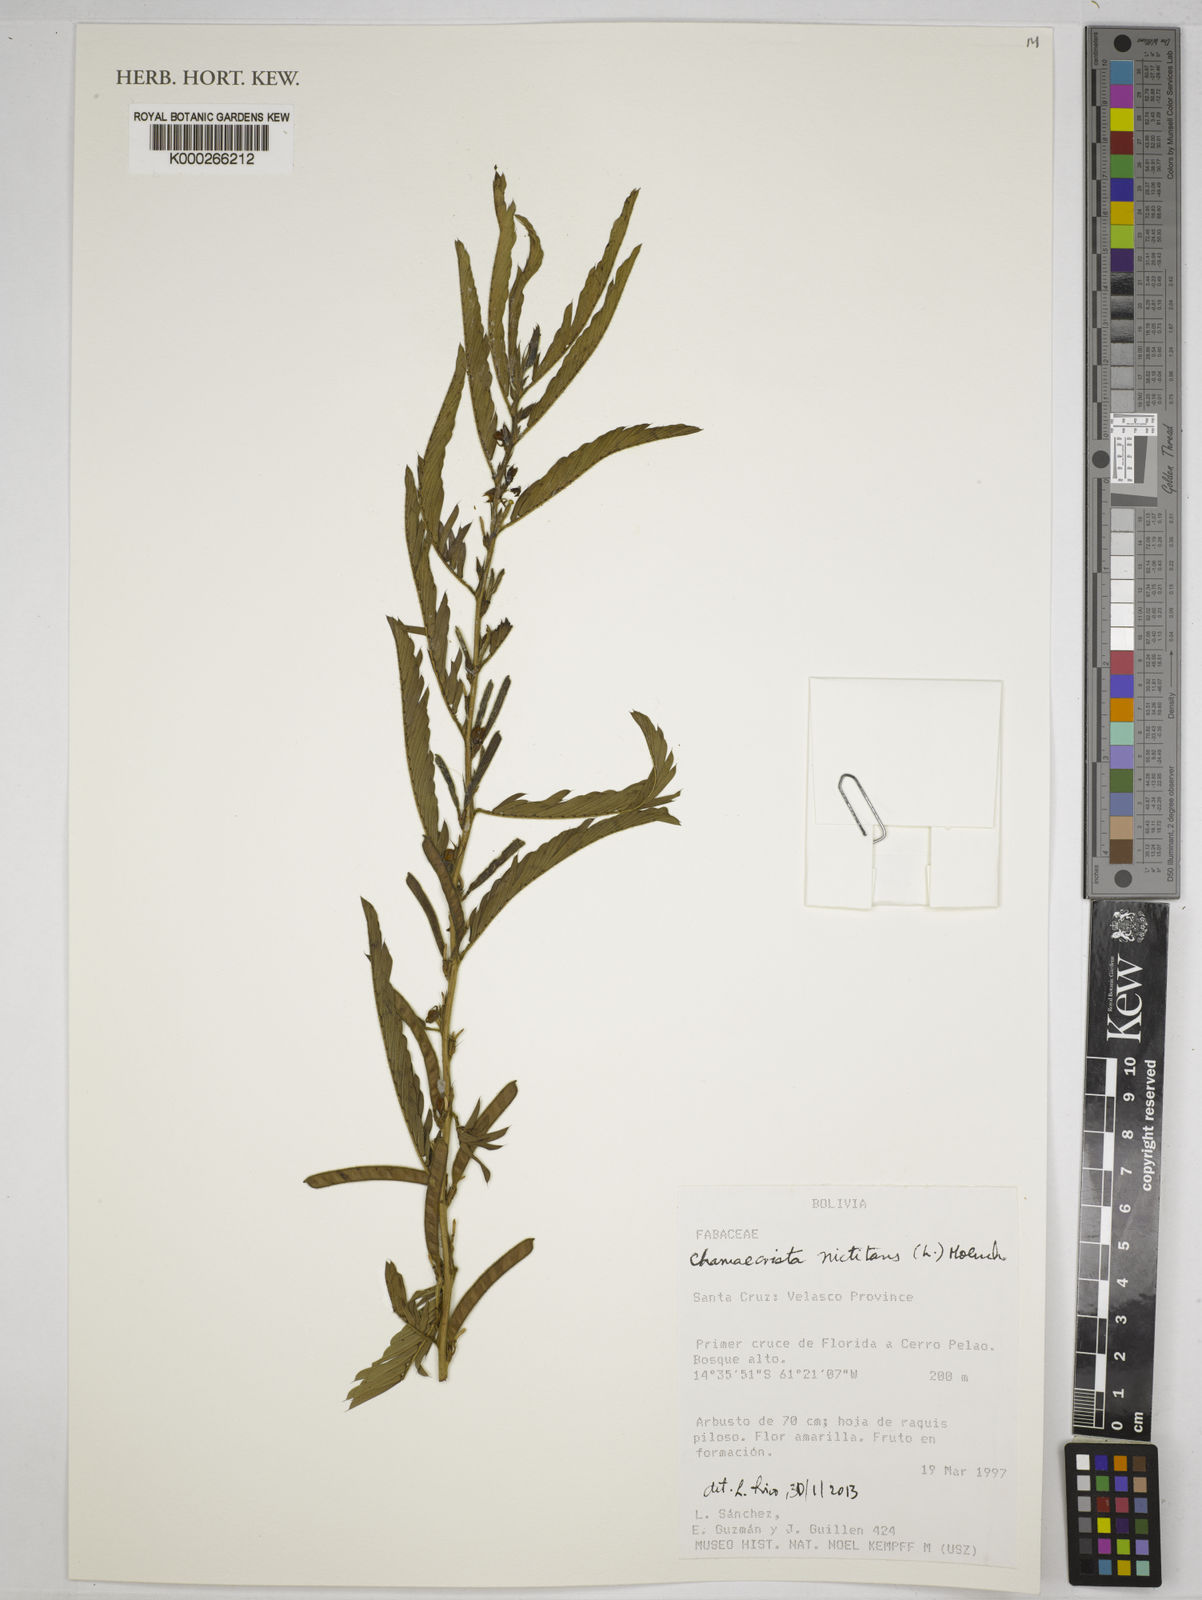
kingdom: Plantae
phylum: Tracheophyta
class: Magnoliopsida
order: Fabales
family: Fabaceae
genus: Chamaecrista
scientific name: Chamaecrista nictitans
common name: Sensitive cassia
